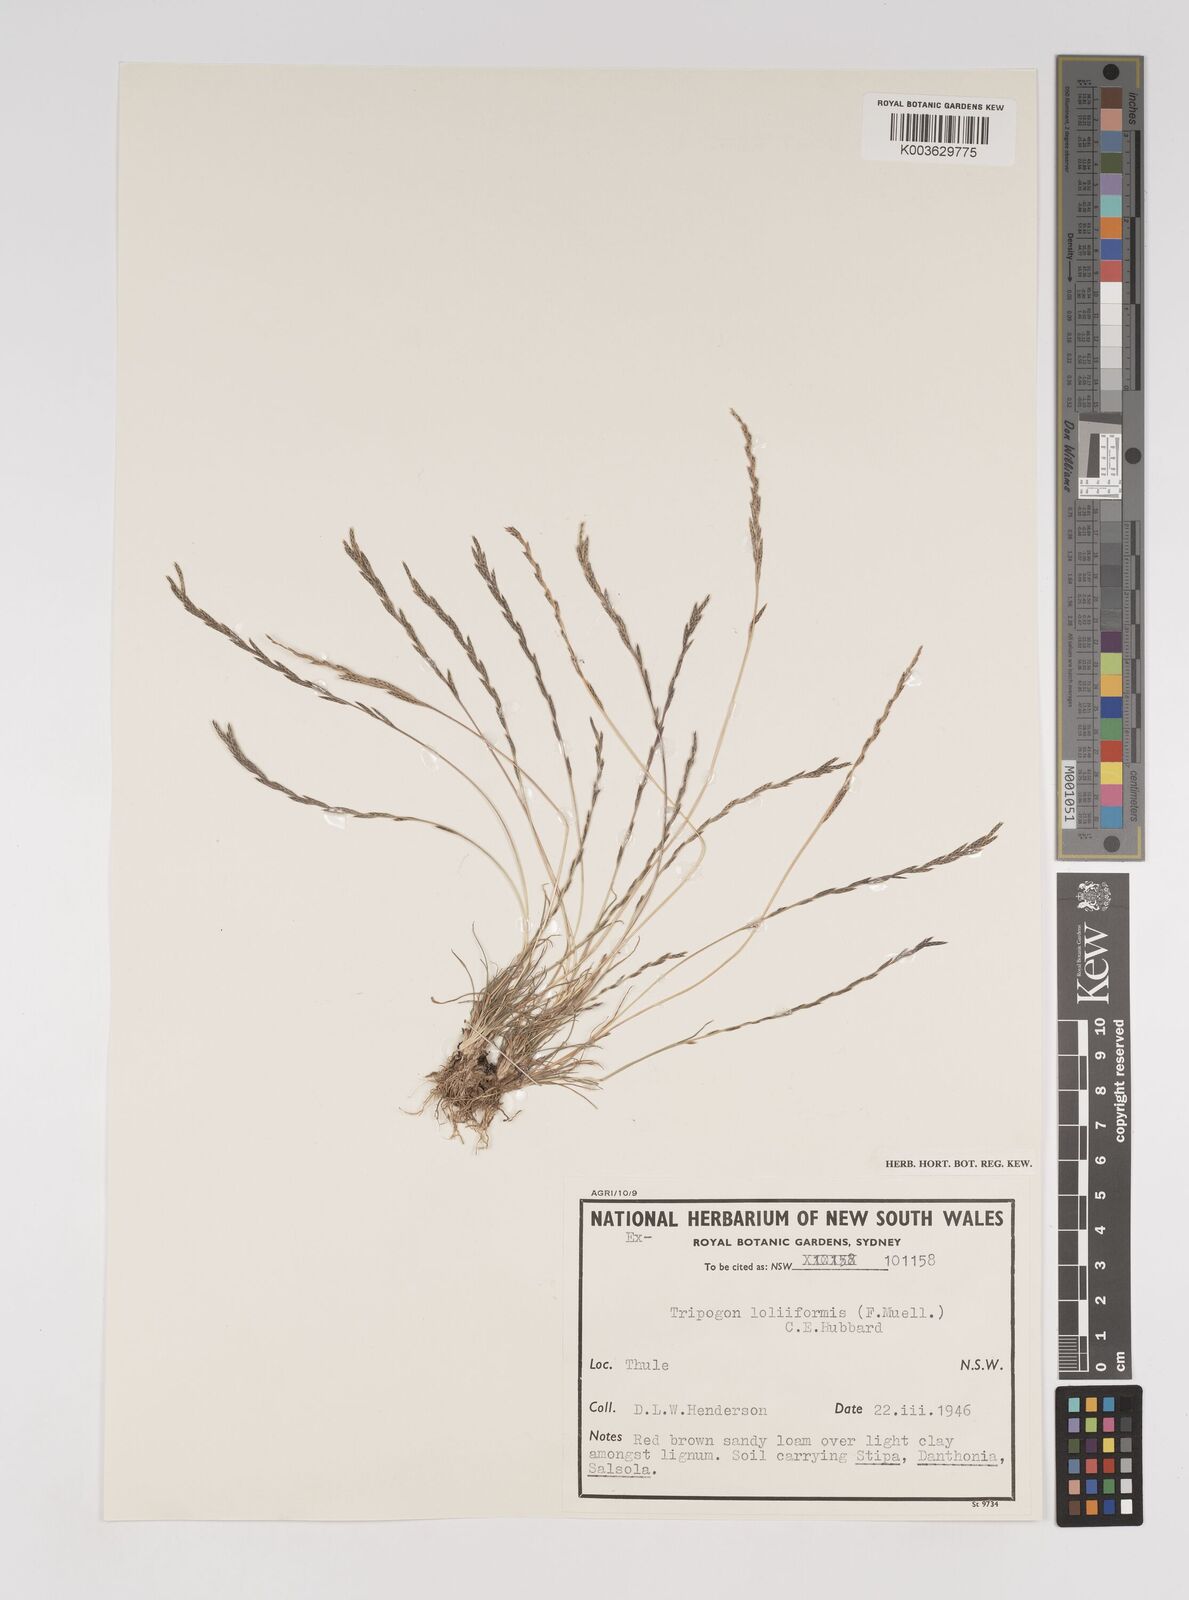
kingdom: Plantae
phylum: Tracheophyta
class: Liliopsida
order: Poales
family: Poaceae
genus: Tripogonella
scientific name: Tripogonella loliiformis
